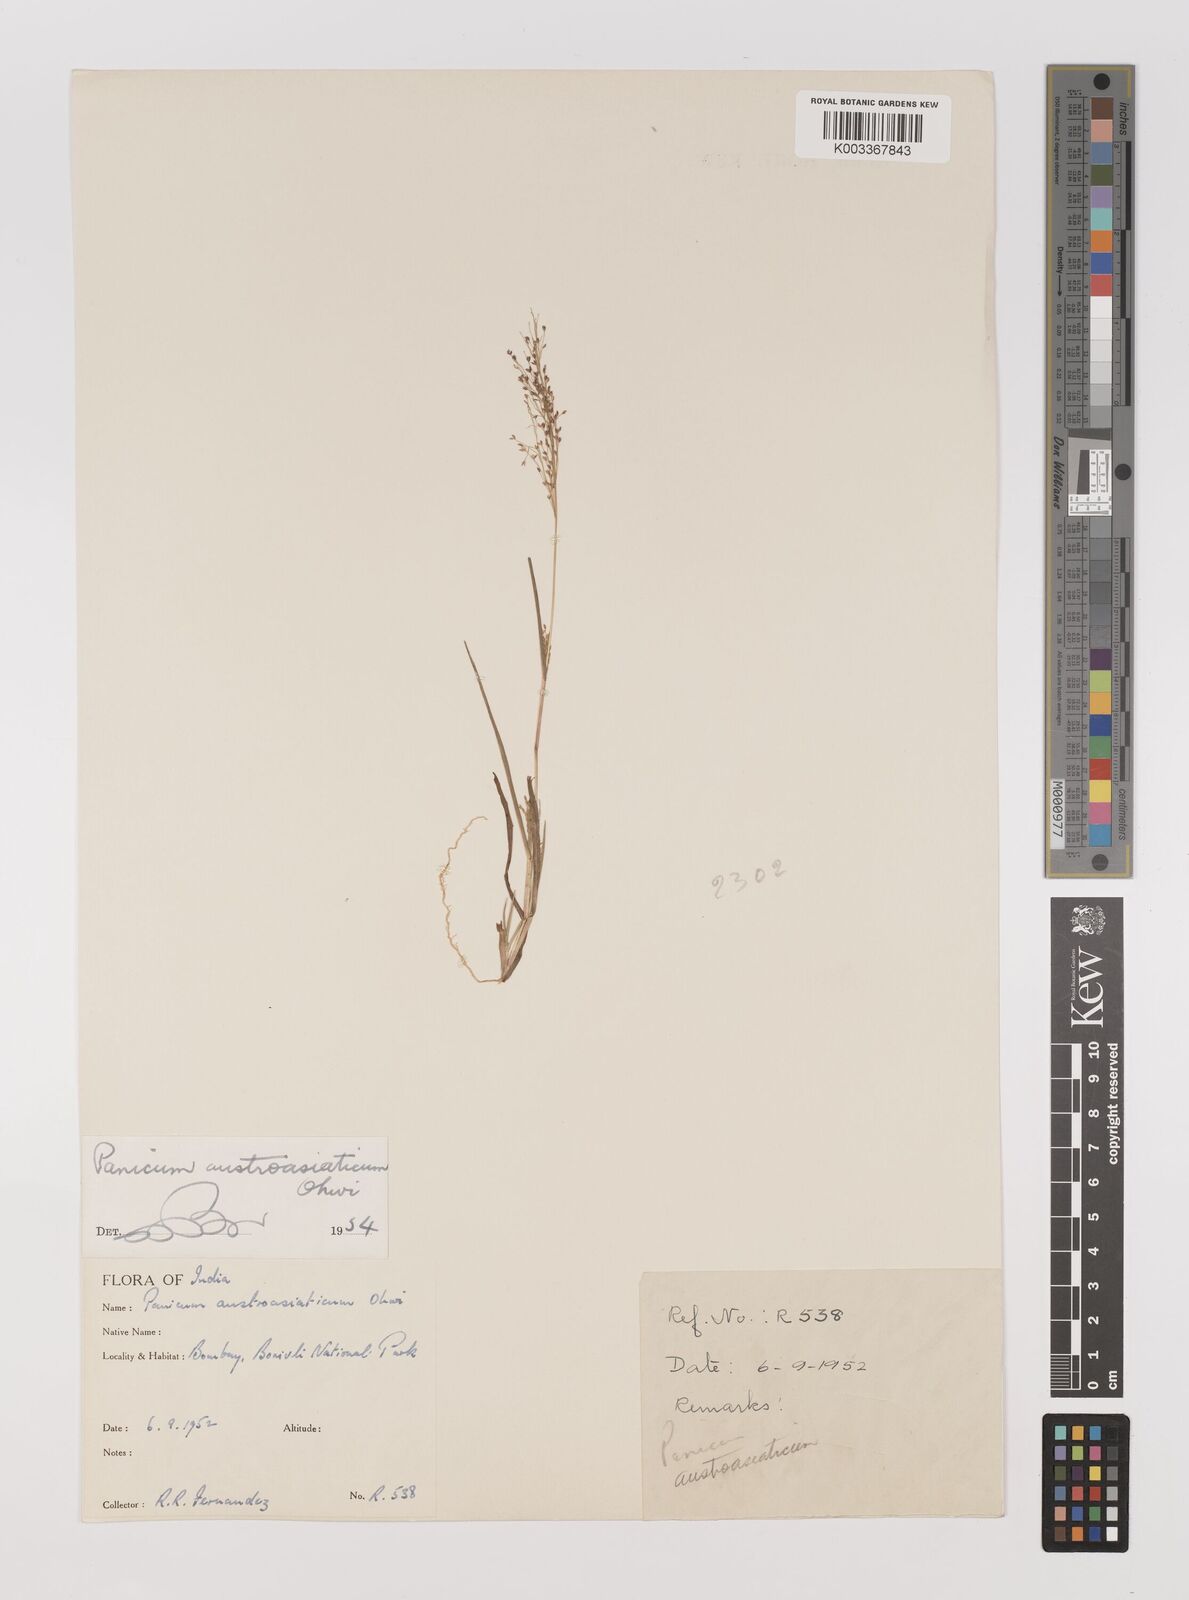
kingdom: Plantae
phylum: Tracheophyta
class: Liliopsida
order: Poales
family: Poaceae
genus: Panicum
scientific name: Panicum humile
